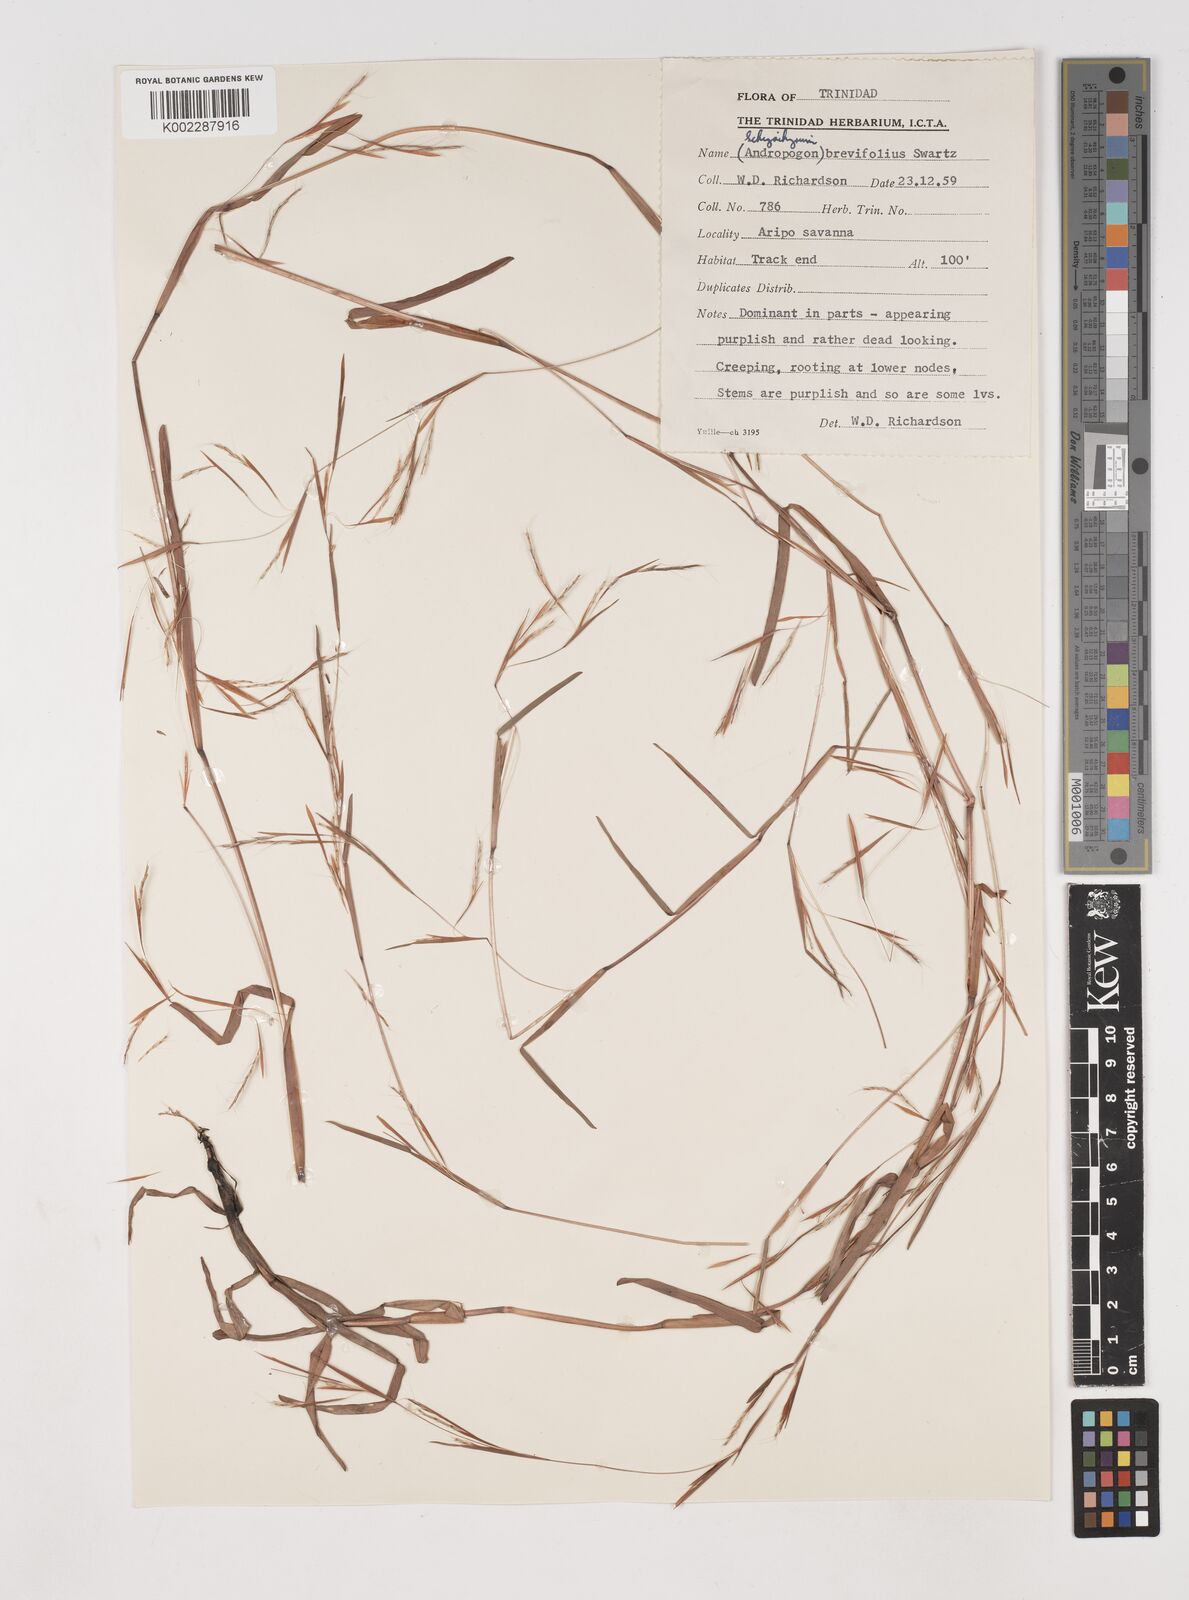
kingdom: Plantae
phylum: Tracheophyta
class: Liliopsida
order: Poales
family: Poaceae
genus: Schizachyrium
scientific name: Schizachyrium brevifolium
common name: Serillo dulce
